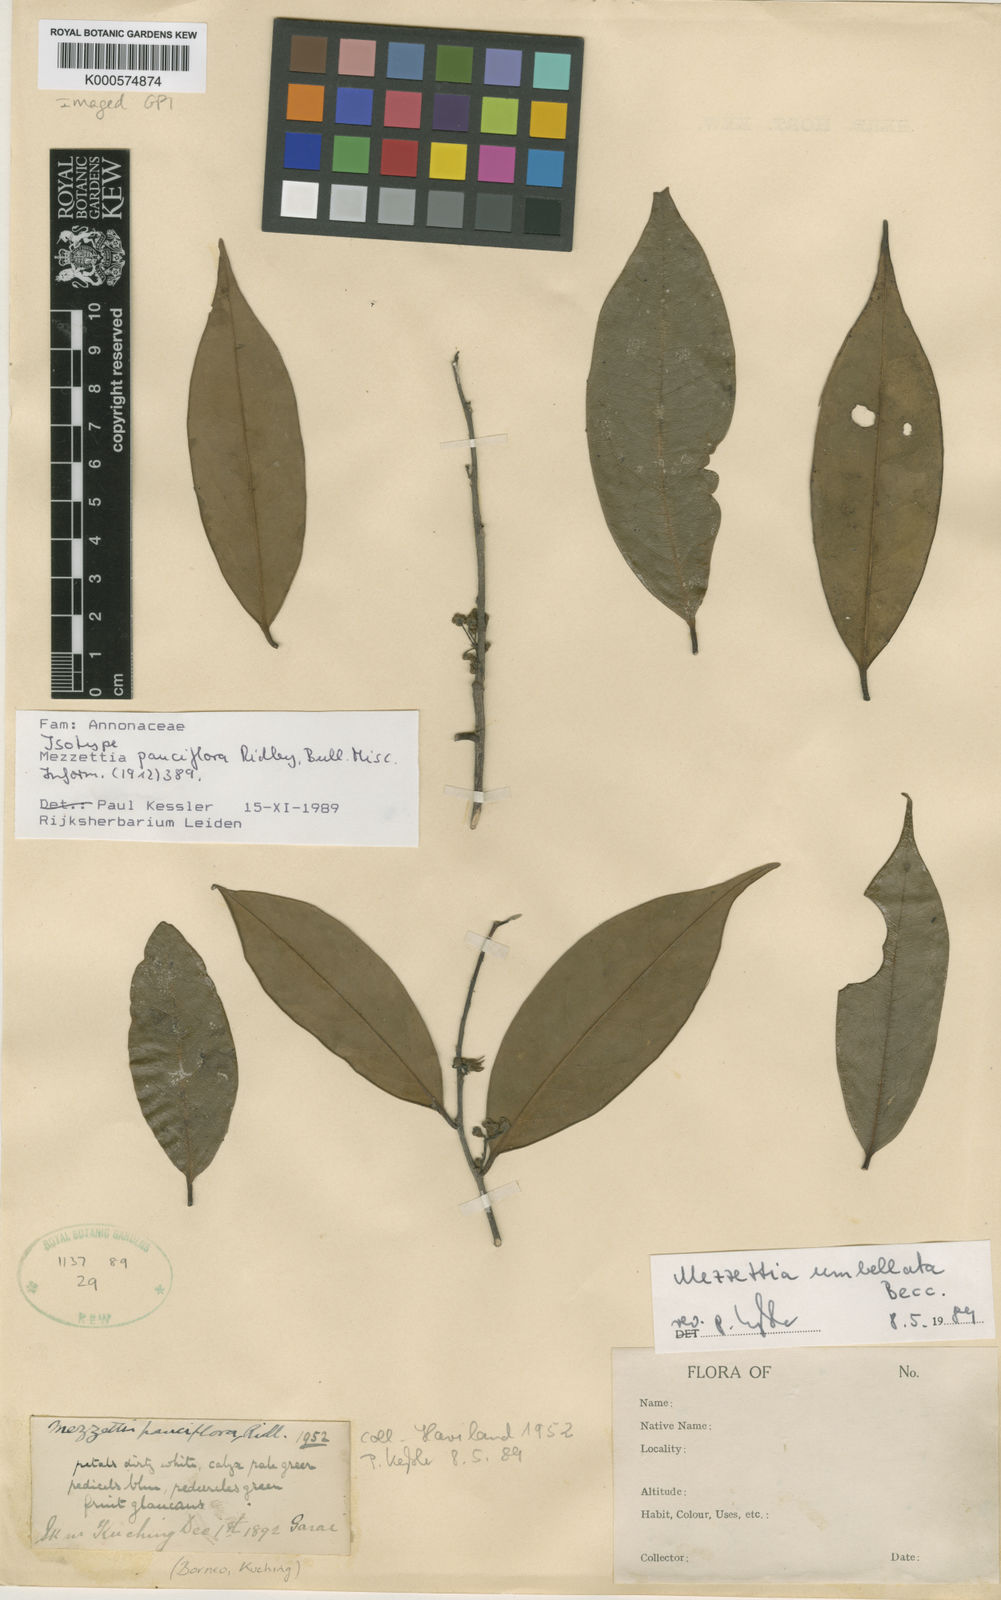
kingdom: Plantae
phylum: Tracheophyta
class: Magnoliopsida
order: Magnoliales
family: Annonaceae
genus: Mezzettia
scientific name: Mezzettia umbellata
